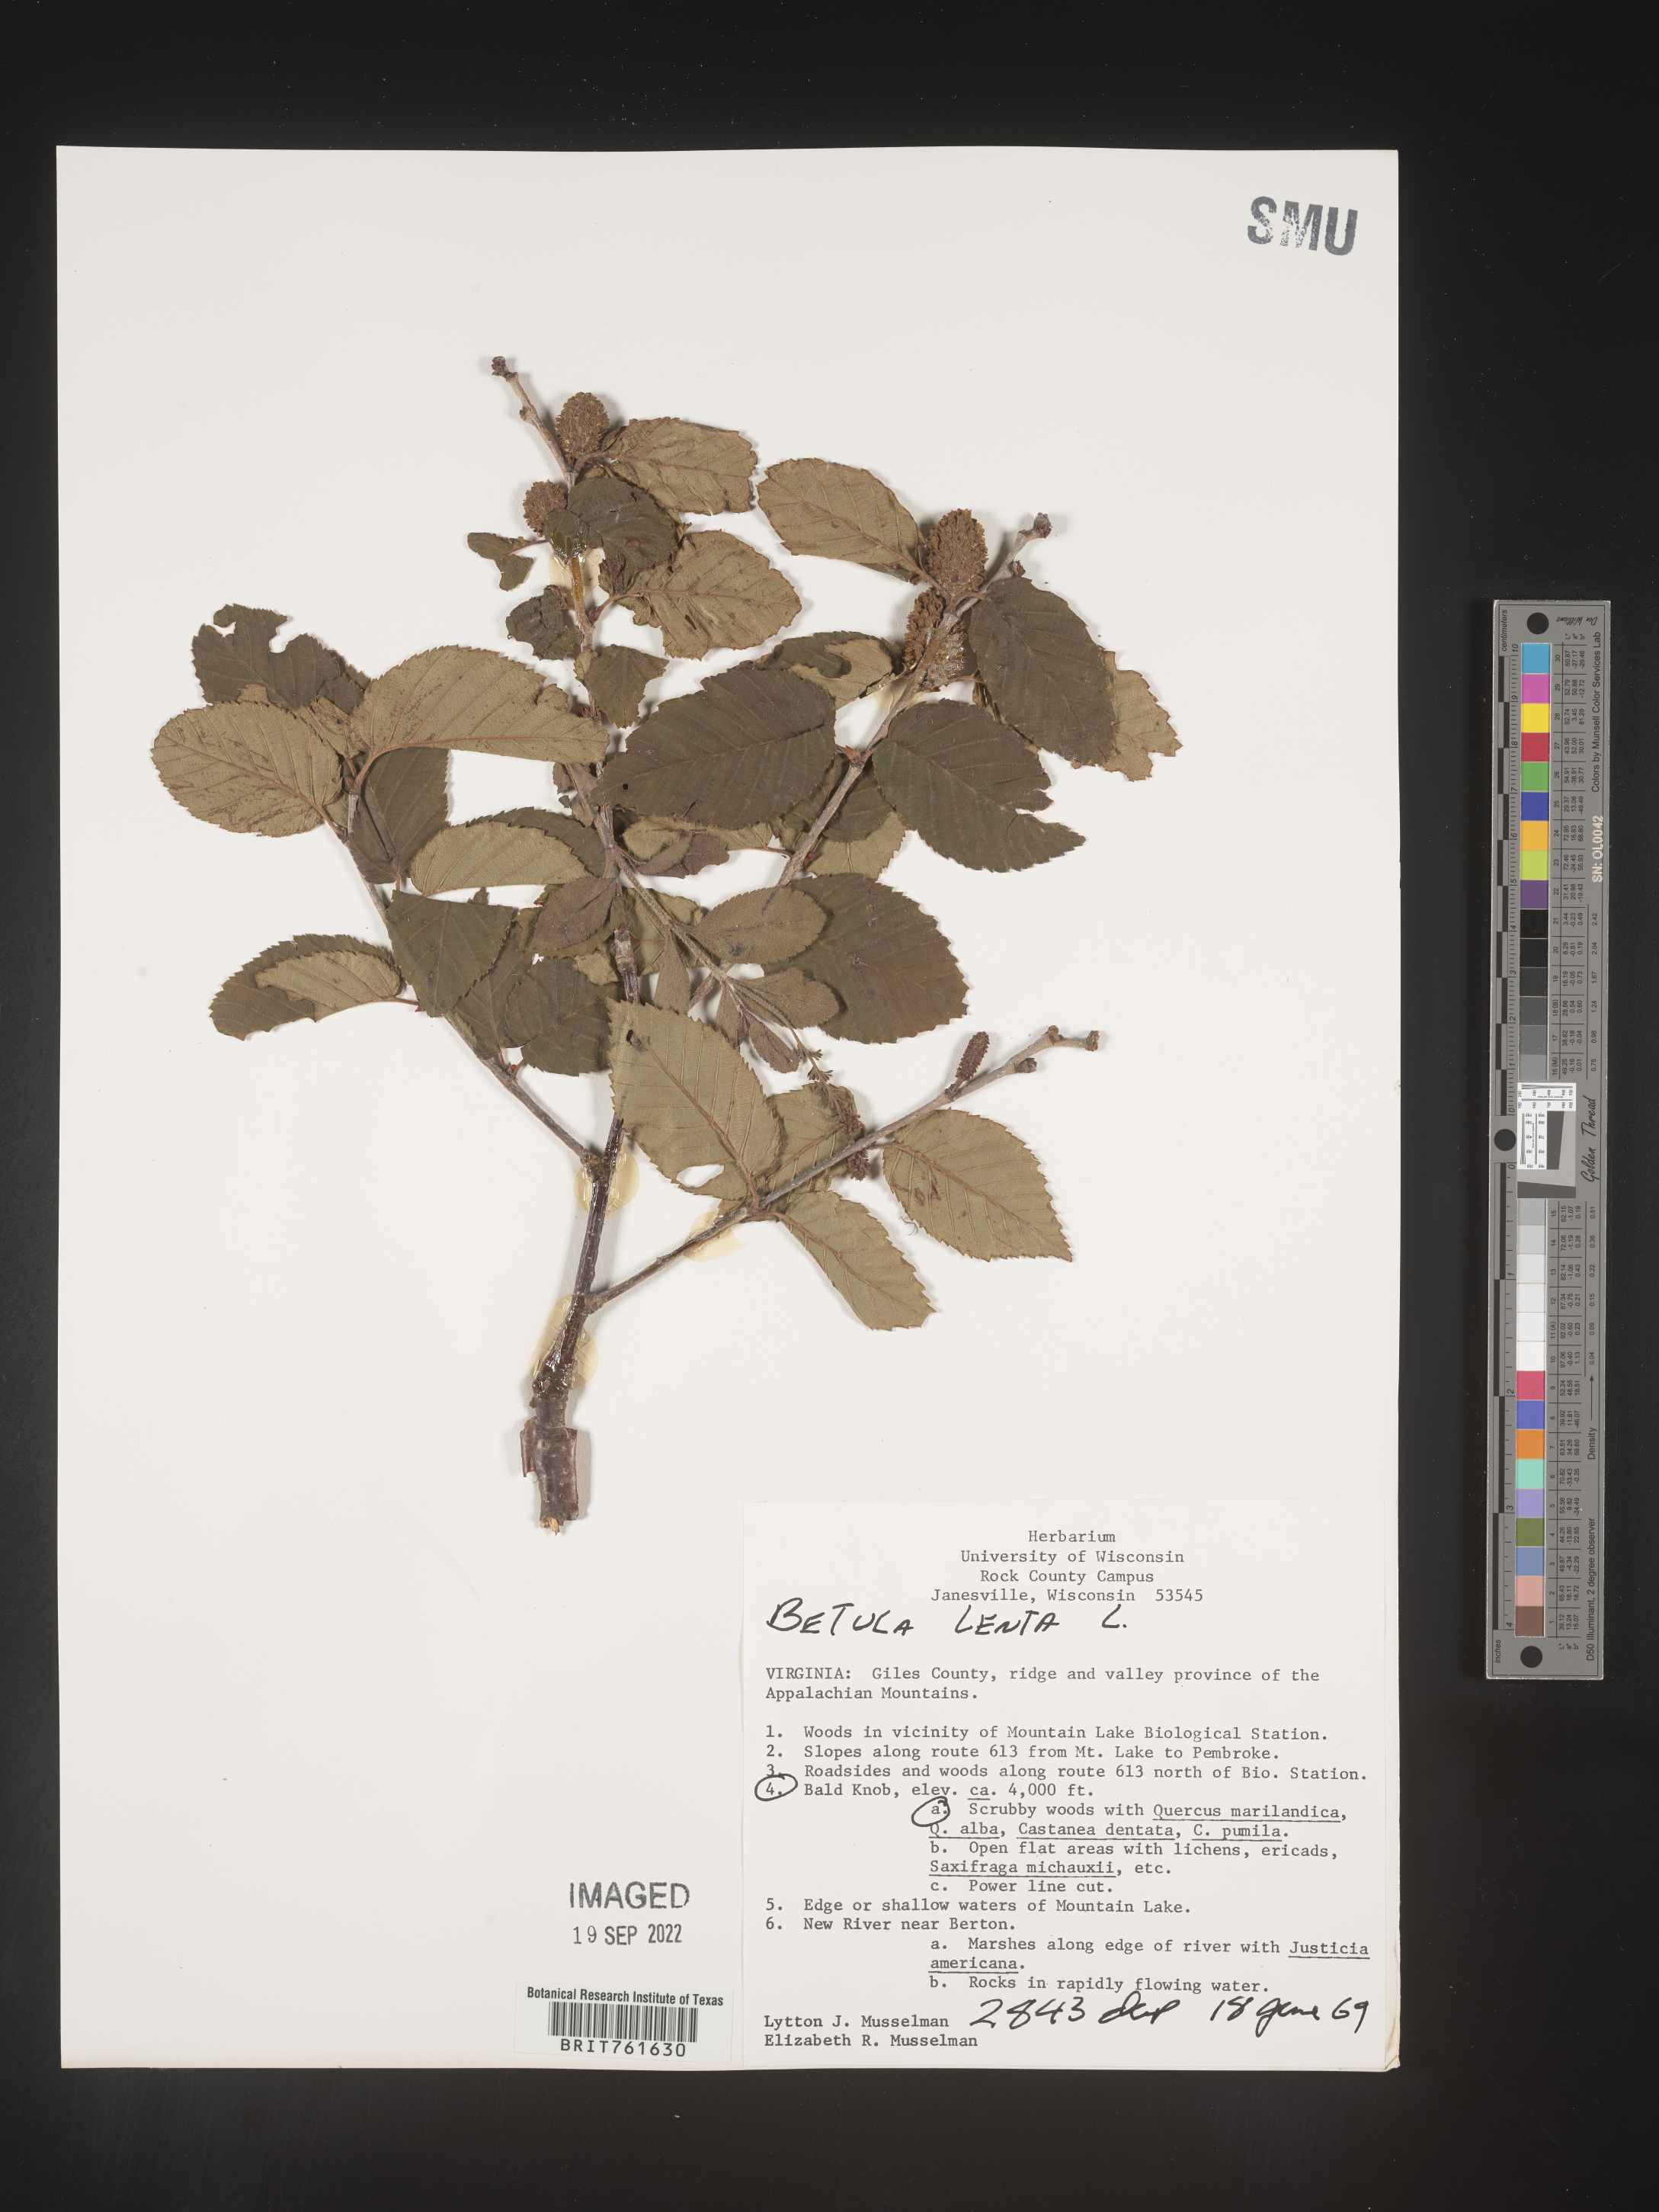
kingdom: Plantae
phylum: Tracheophyta
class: Magnoliopsida
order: Fagales
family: Betulaceae
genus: Betula
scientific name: Betula lenta
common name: Black birch
